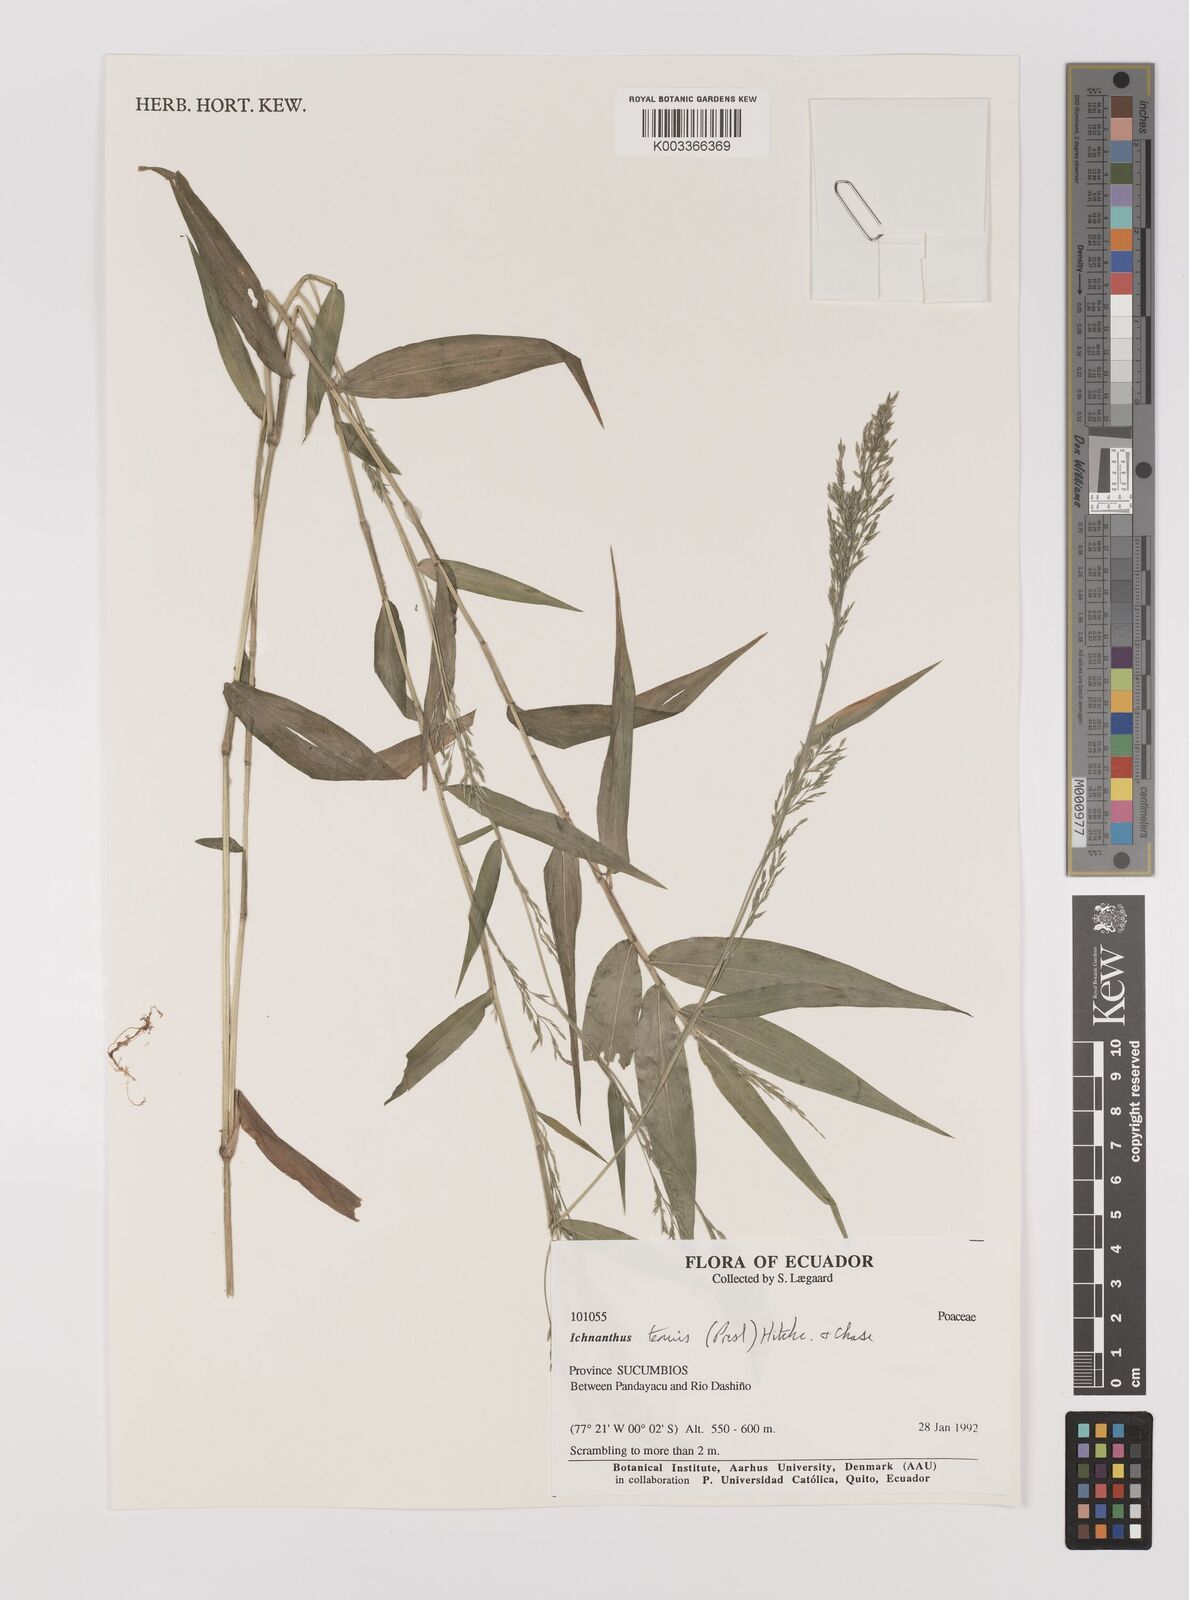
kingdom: Plantae
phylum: Tracheophyta
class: Liliopsida
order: Poales
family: Poaceae
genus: Ichnanthus
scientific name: Ichnanthus tenuis
